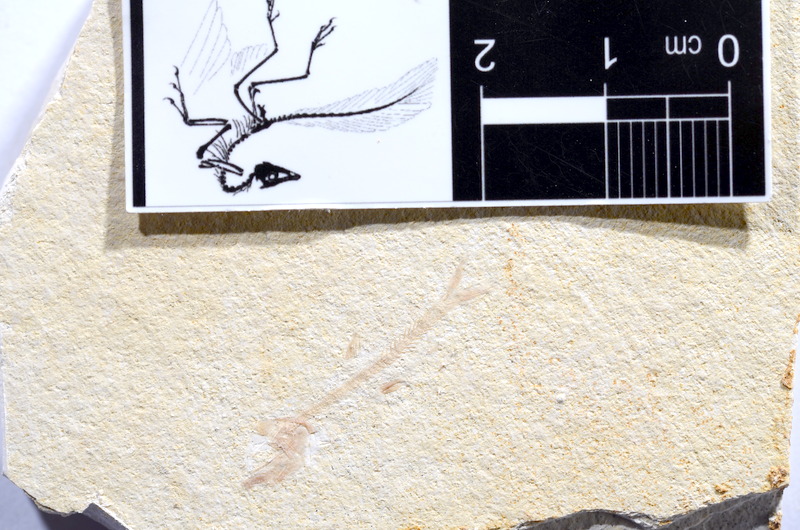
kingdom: Animalia
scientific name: Animalia
